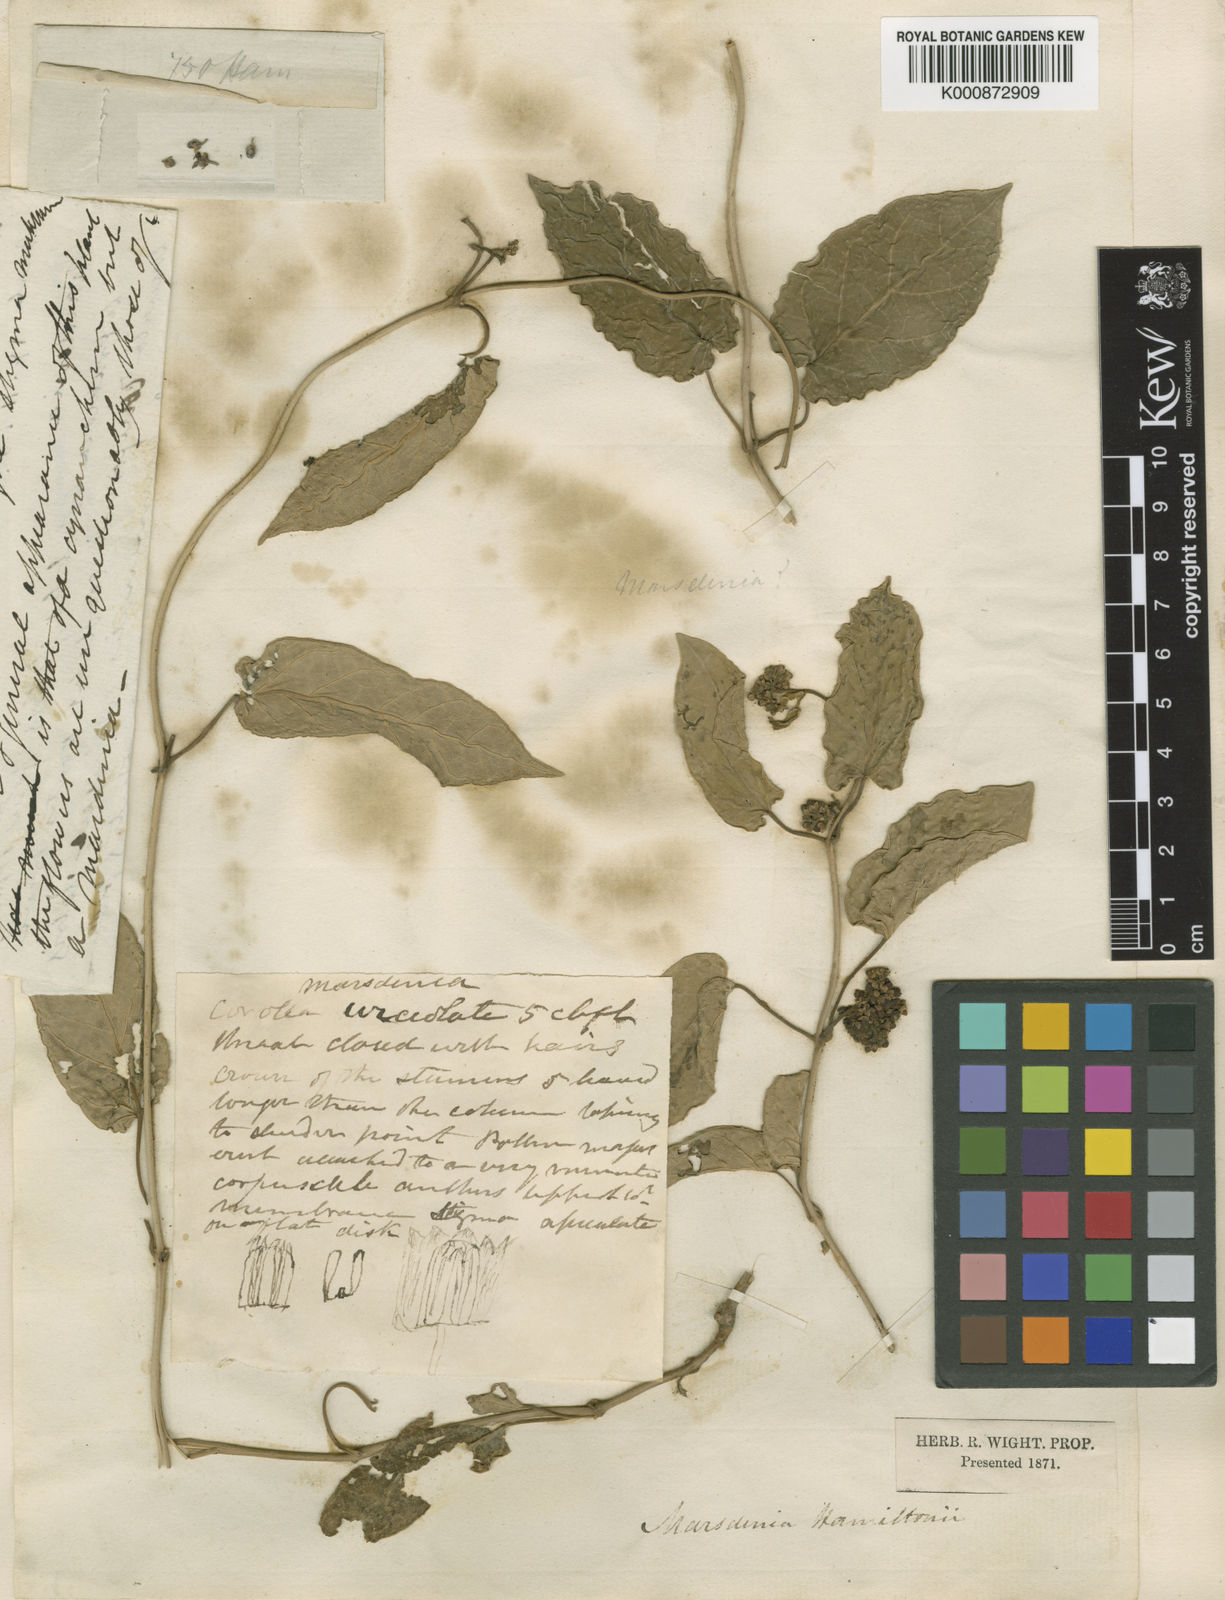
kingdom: Plantae
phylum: Tracheophyta
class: Magnoliopsida
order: Gentianales
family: Apocynaceae
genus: Leichhardtia
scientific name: Leichhardtia hamiltonii
